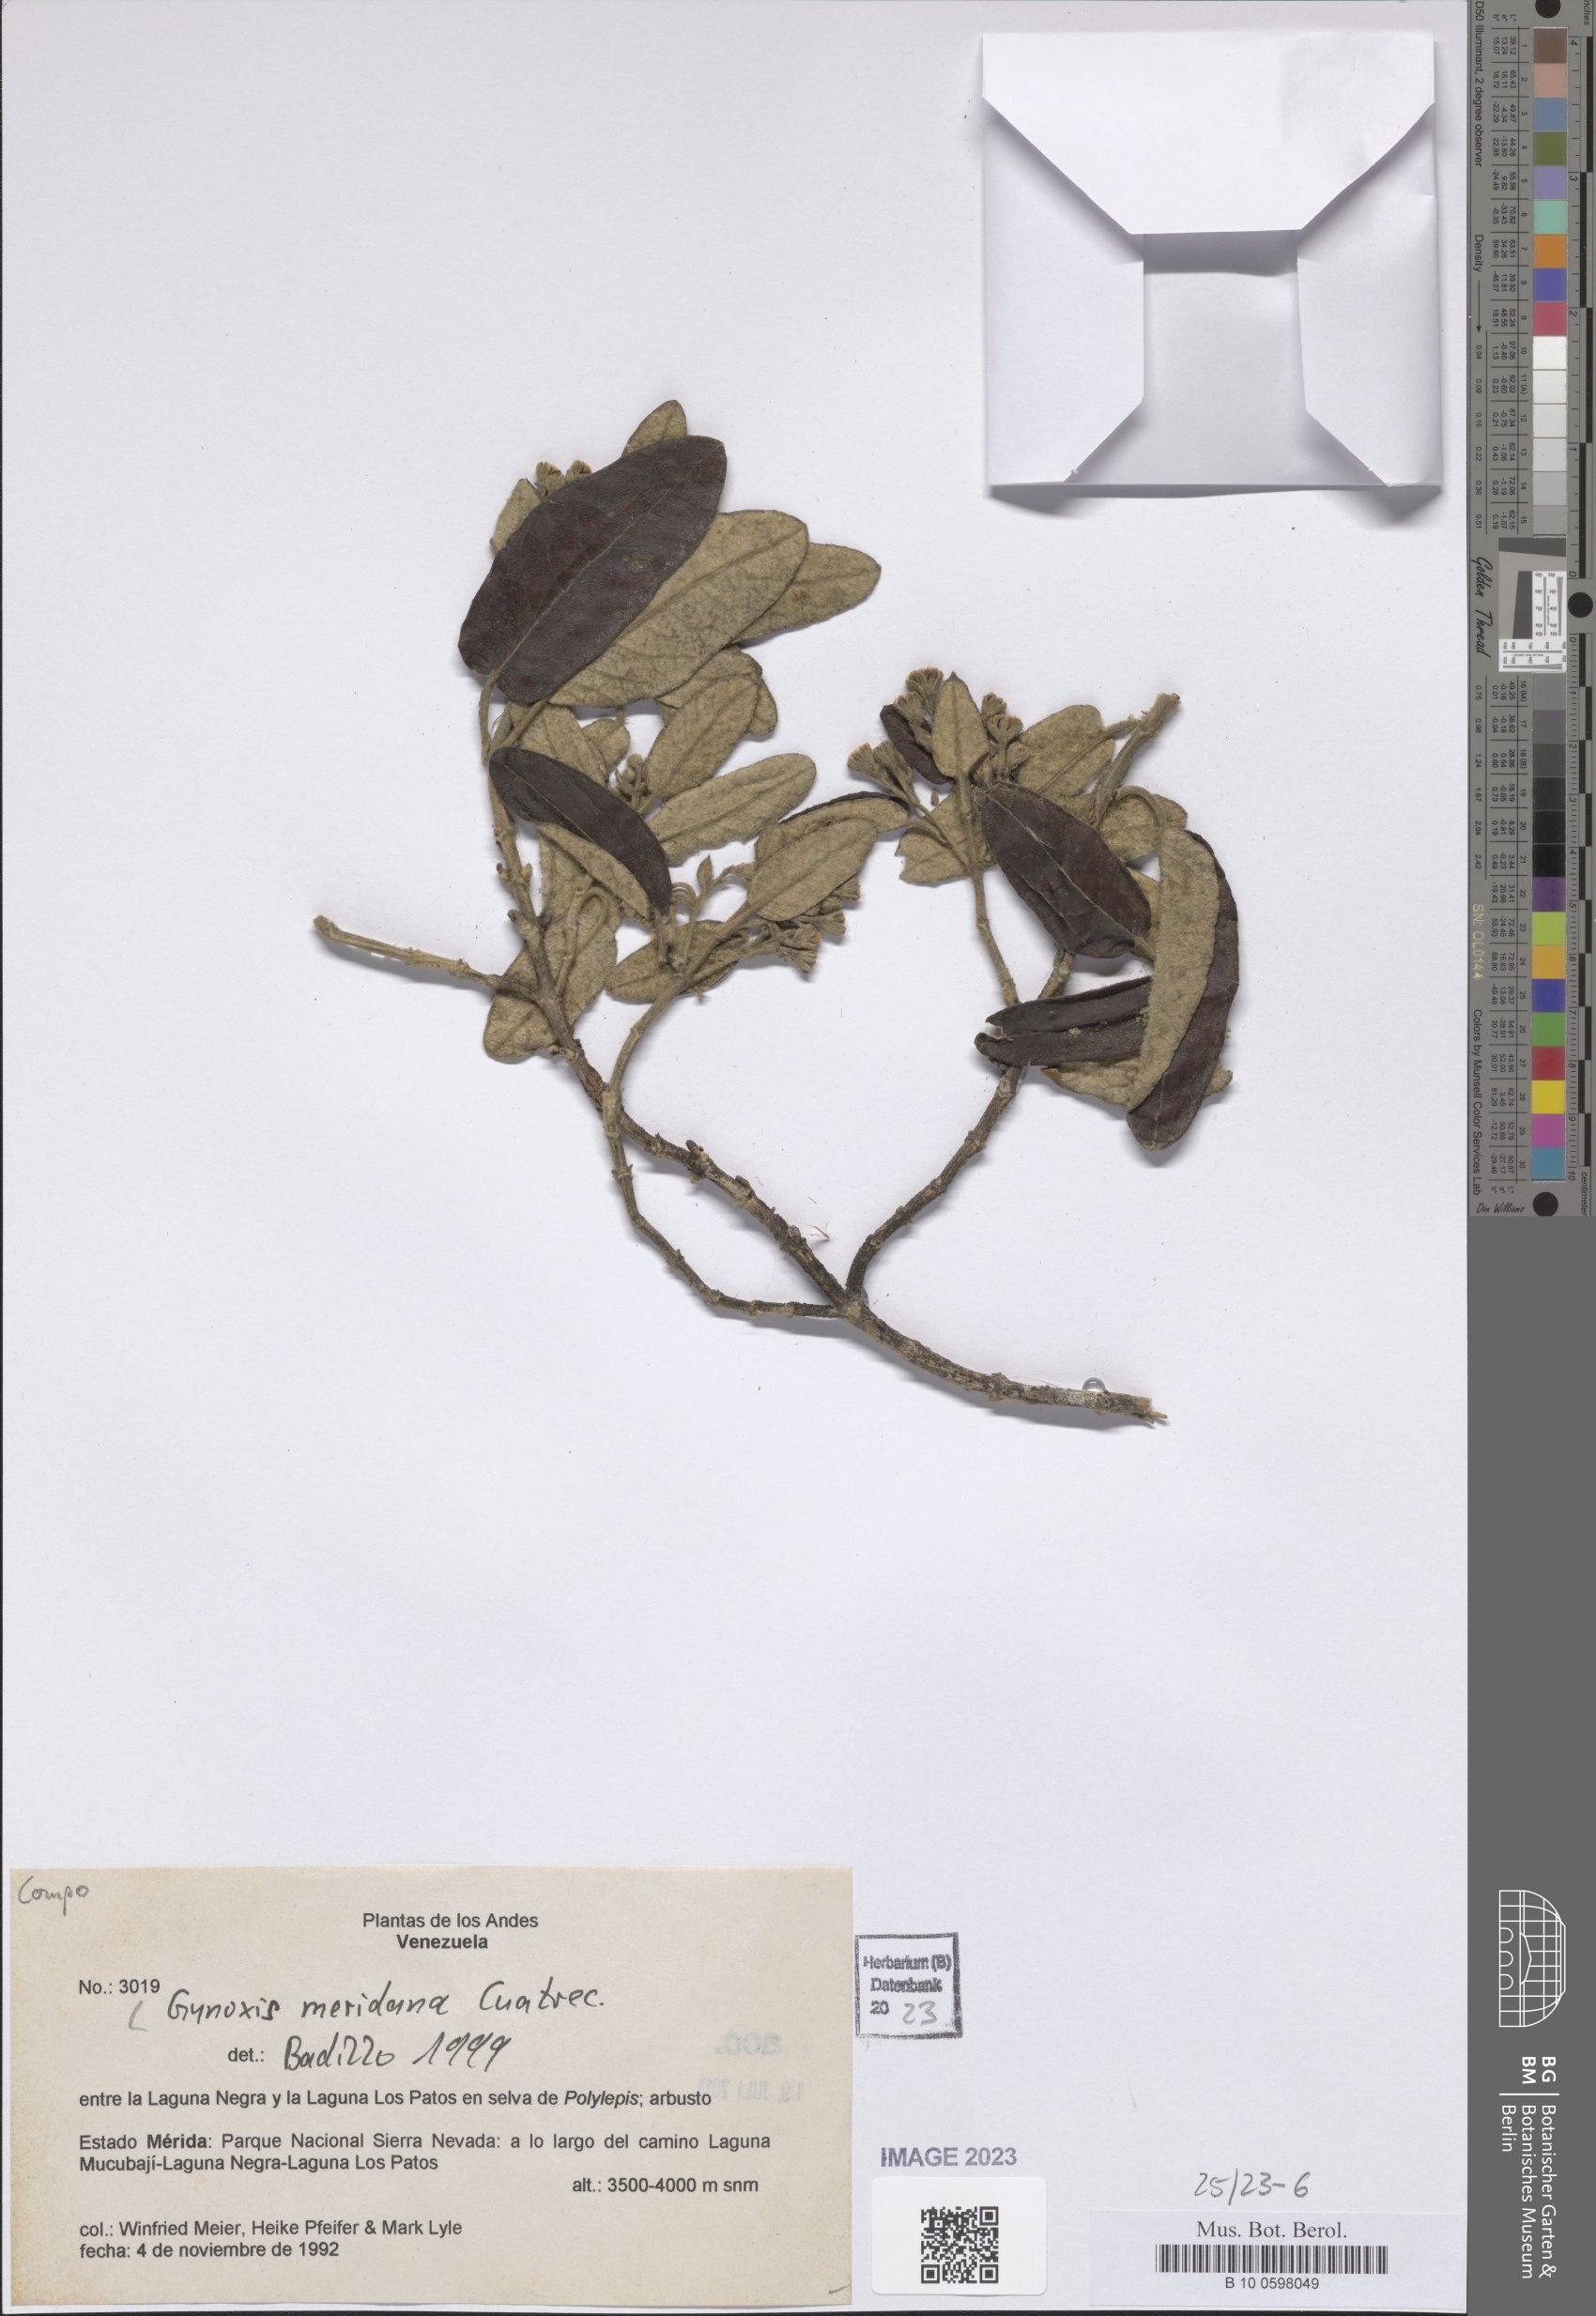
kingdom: Plantae
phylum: Tracheophyta
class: Magnoliopsida
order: Asterales
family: Asteraceae
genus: Gynoxys
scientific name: Gynoxys meridana
